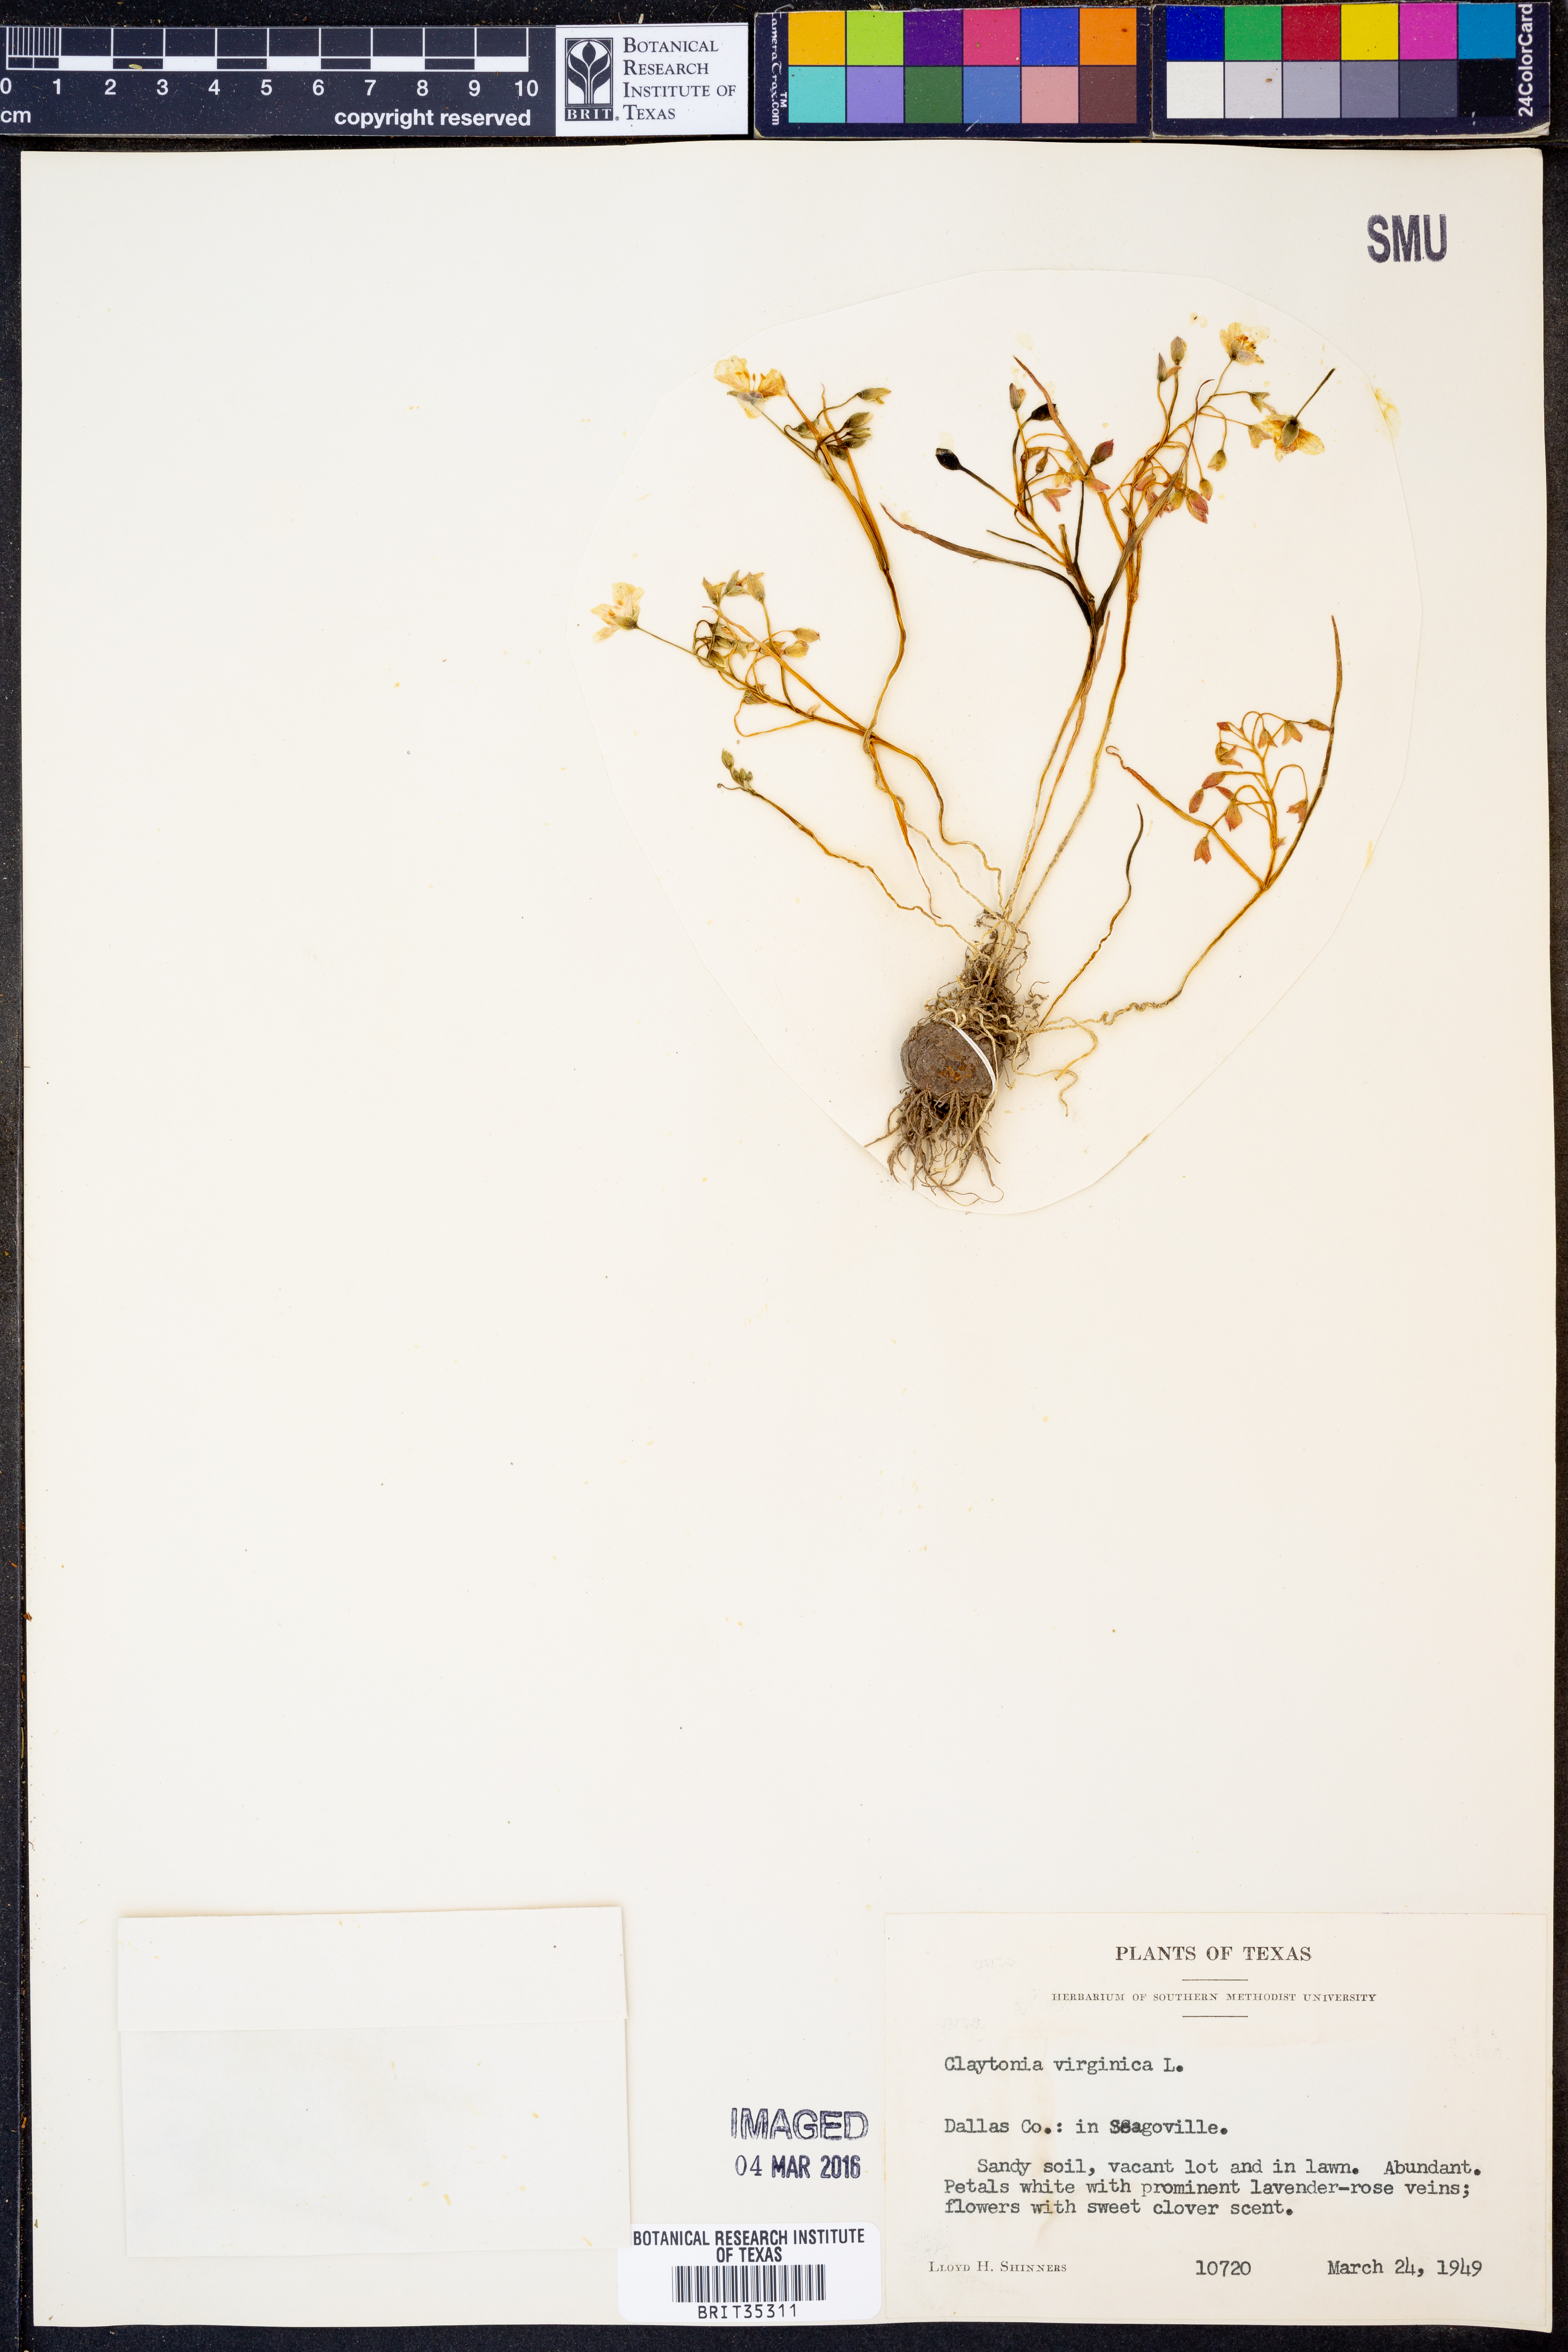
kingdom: Plantae
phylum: Tracheophyta
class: Magnoliopsida
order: Caryophyllales
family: Montiaceae
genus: Claytonia
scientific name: Claytonia virginica
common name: Virginia springbeauty
